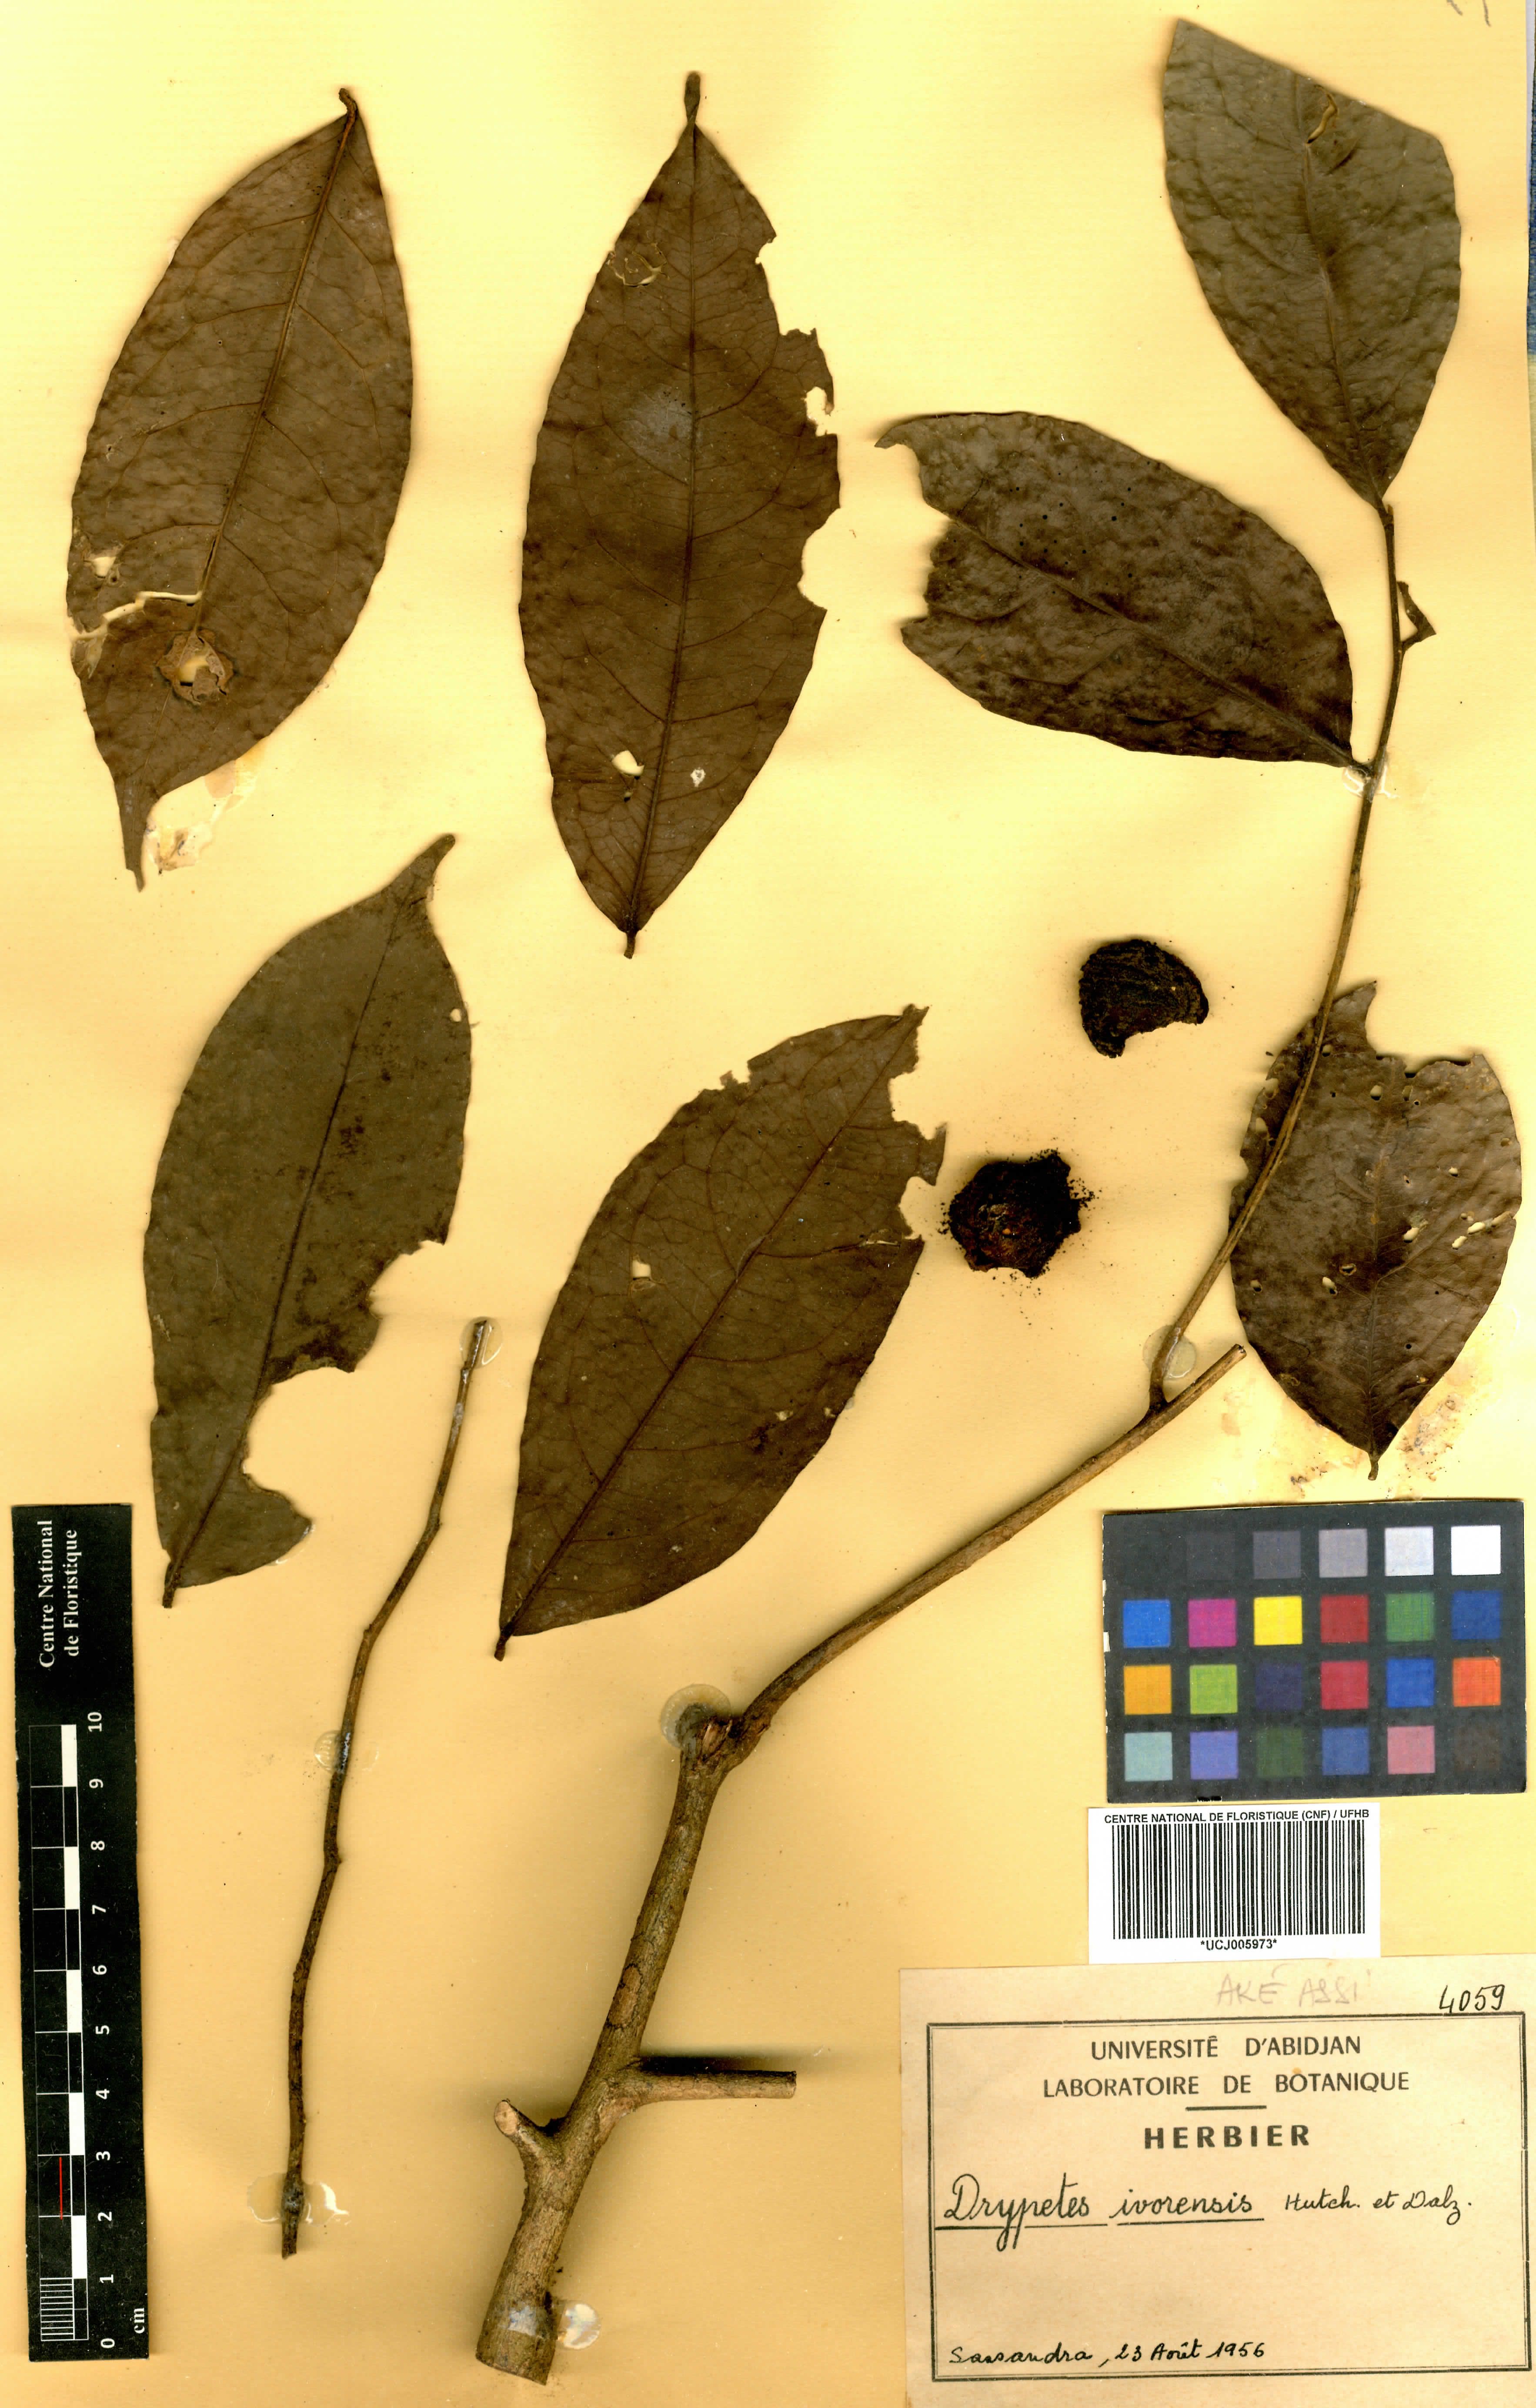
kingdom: Plantae
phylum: Tracheophyta
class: Magnoliopsida
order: Malpighiales
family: Putranjivaceae
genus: Drypetes
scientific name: Drypetes ivorensis
